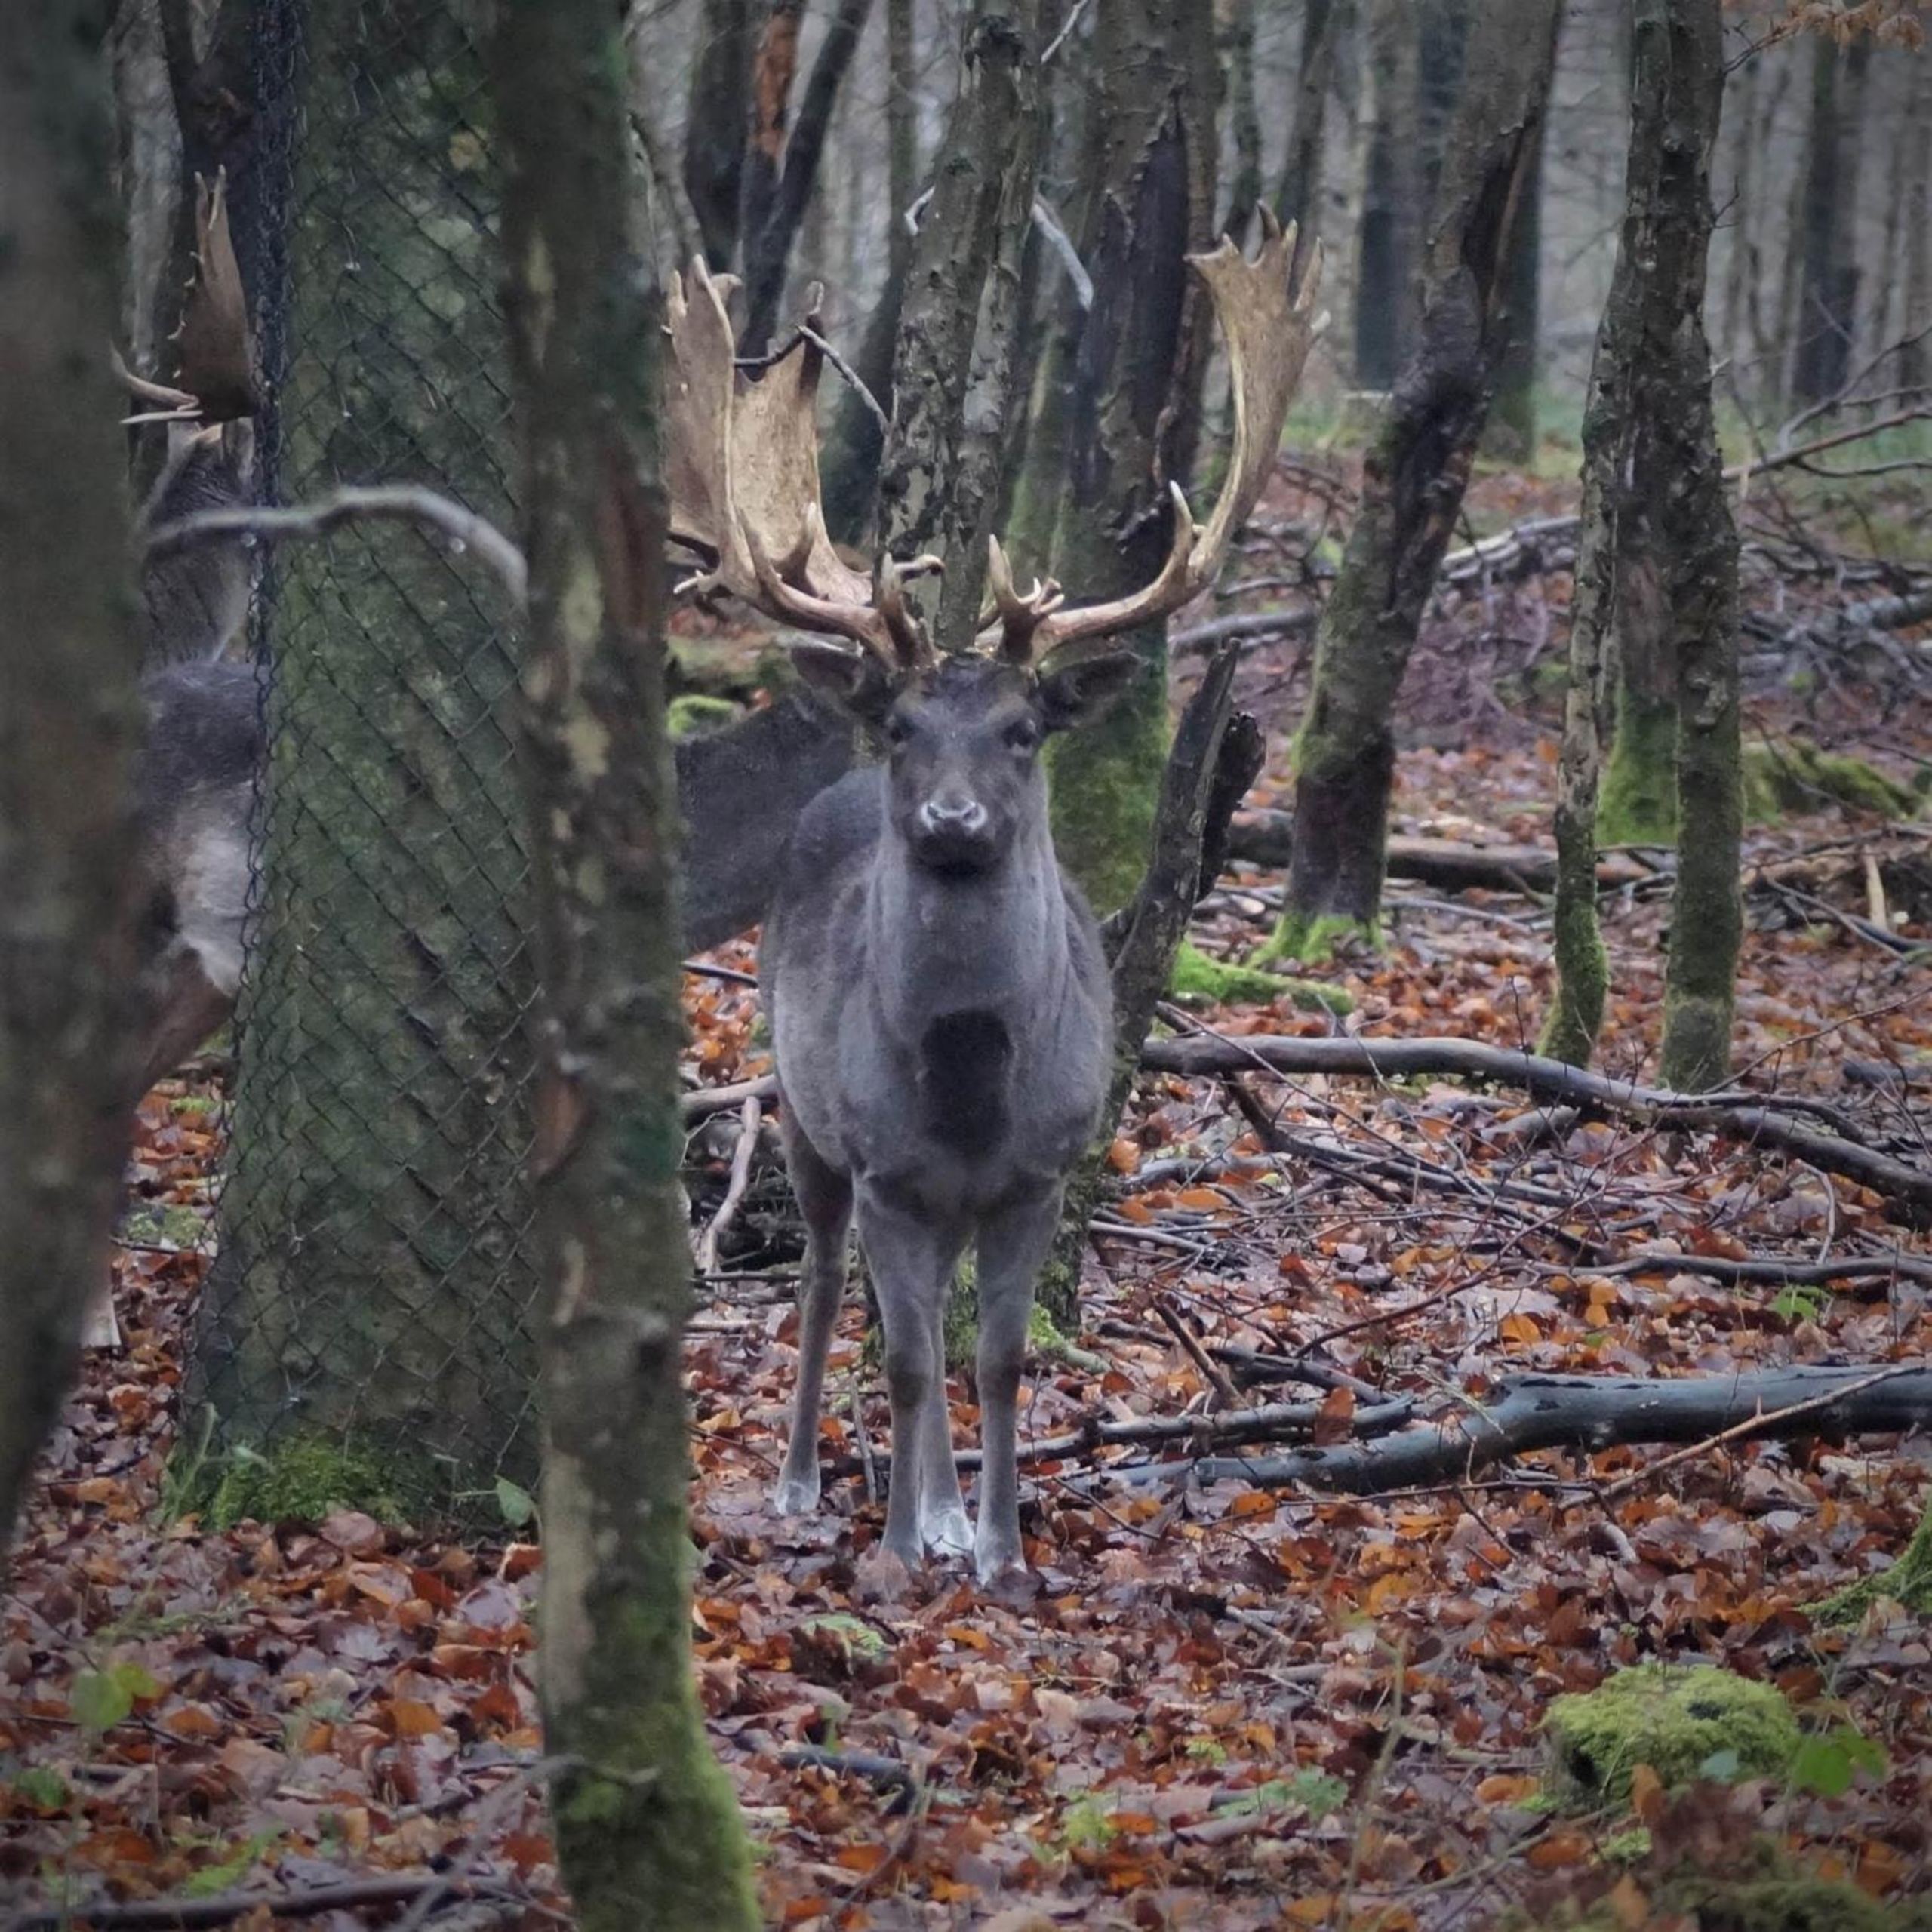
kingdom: Animalia
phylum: Chordata
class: Mammalia
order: Artiodactyla
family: Cervidae
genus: Dama
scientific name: Dama dama
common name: Dådyr
